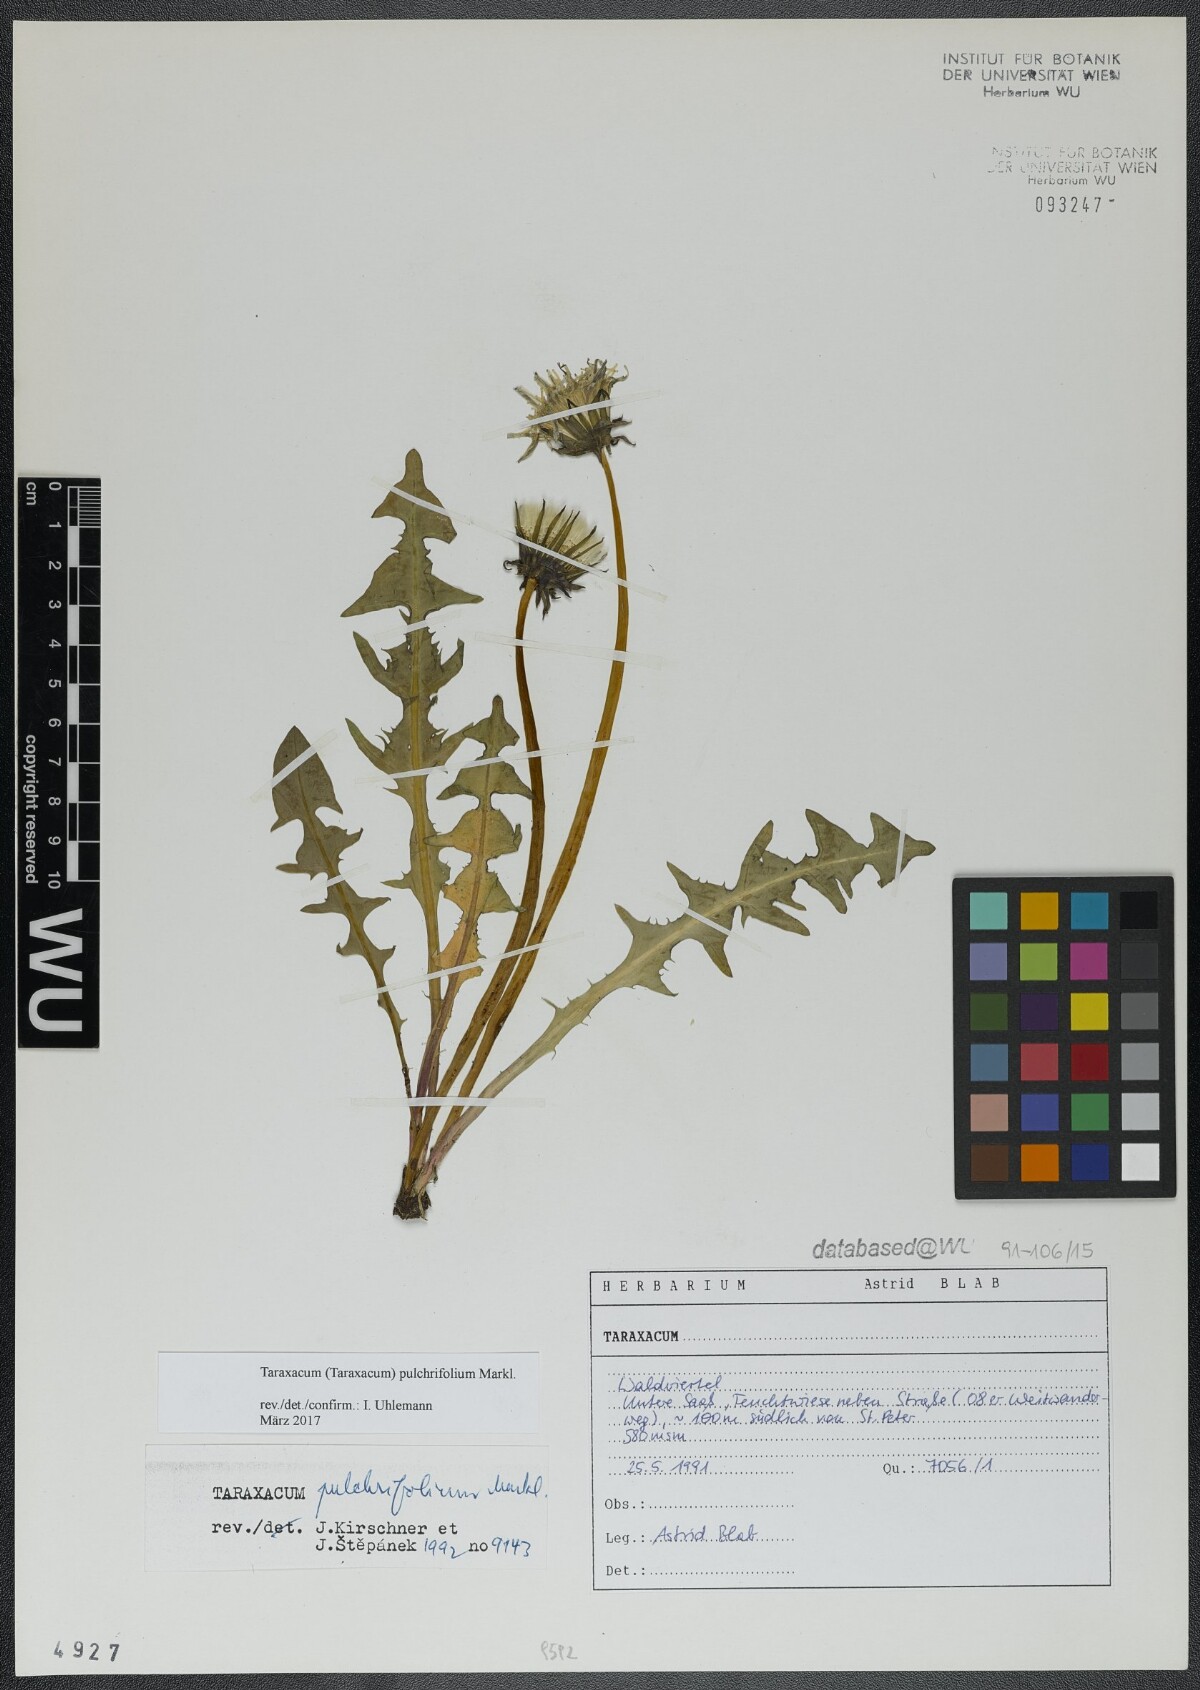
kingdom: Plantae
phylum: Tracheophyta
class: Magnoliopsida
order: Asterales
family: Asteraceae
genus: Taraxacum
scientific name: Taraxacum pulchrifolium
